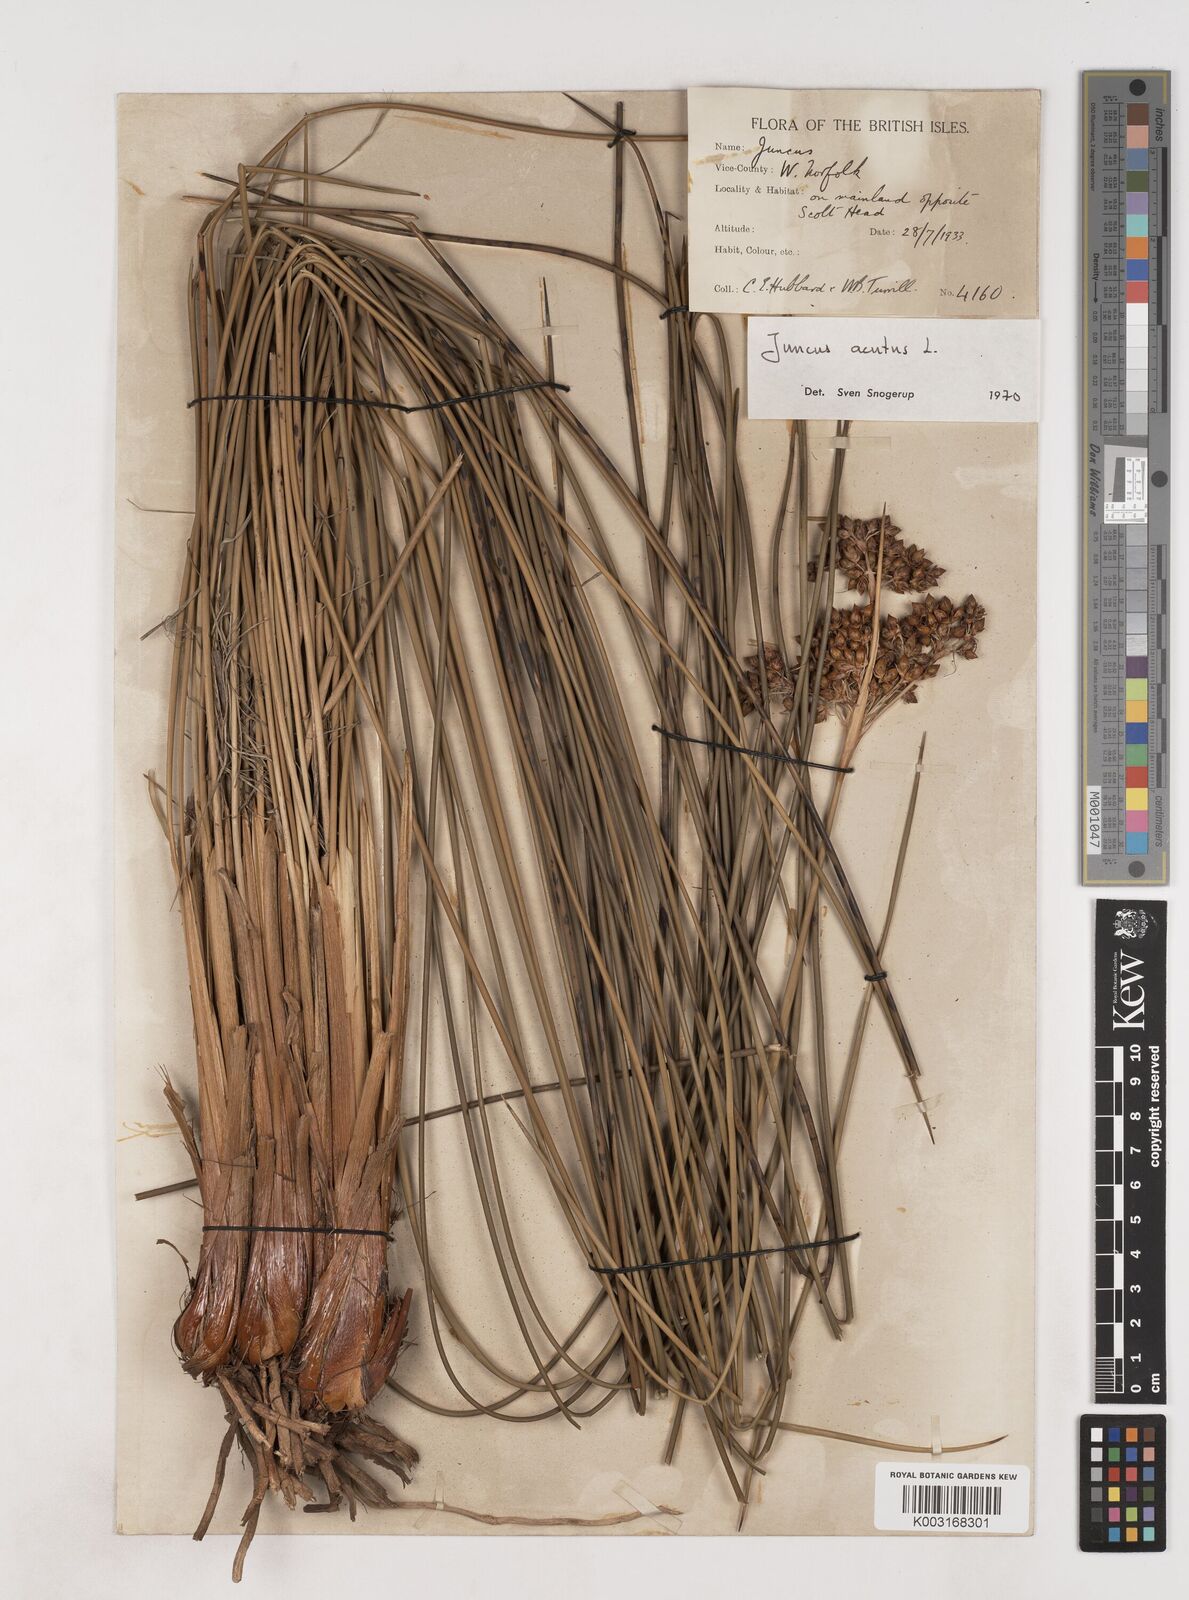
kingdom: Plantae
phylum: Tracheophyta
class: Liliopsida
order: Poales
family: Juncaceae
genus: Juncus
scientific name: Juncus acutus
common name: Sharp rush
